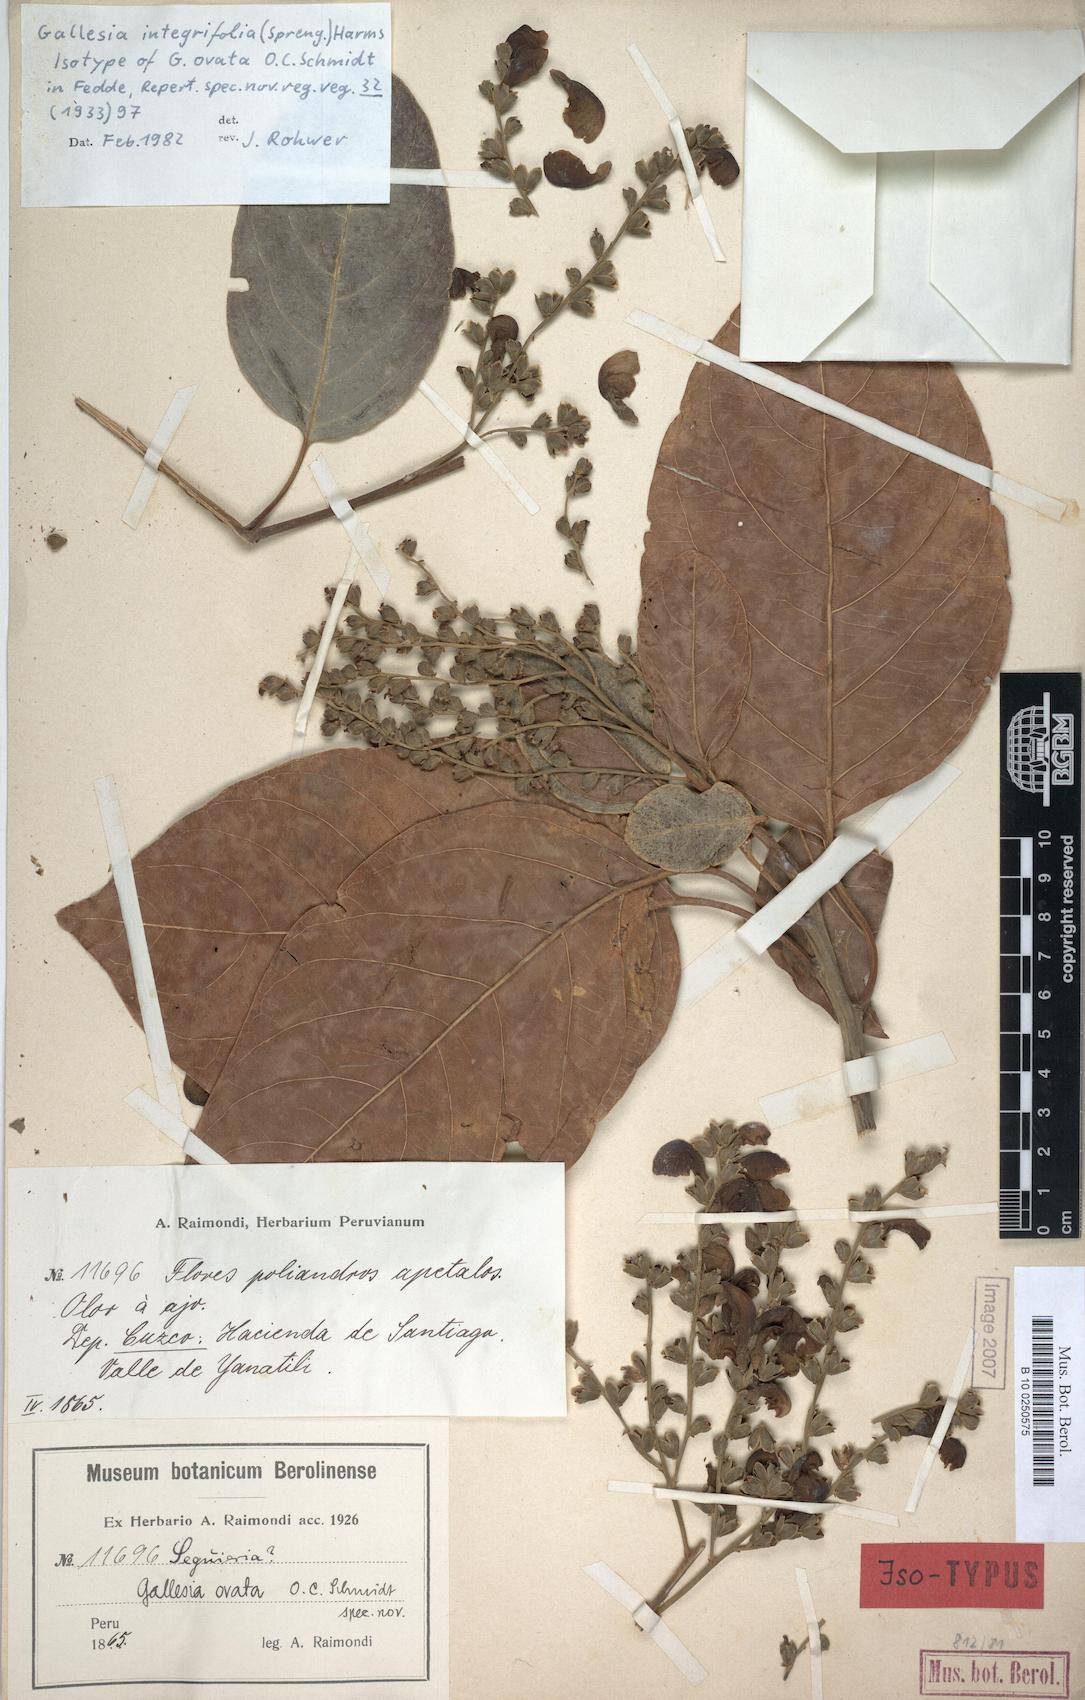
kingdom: Plantae
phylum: Tracheophyta
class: Magnoliopsida
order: Caryophyllales
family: Phytolaccaceae
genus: Gallesia
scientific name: Gallesia integrifolia
